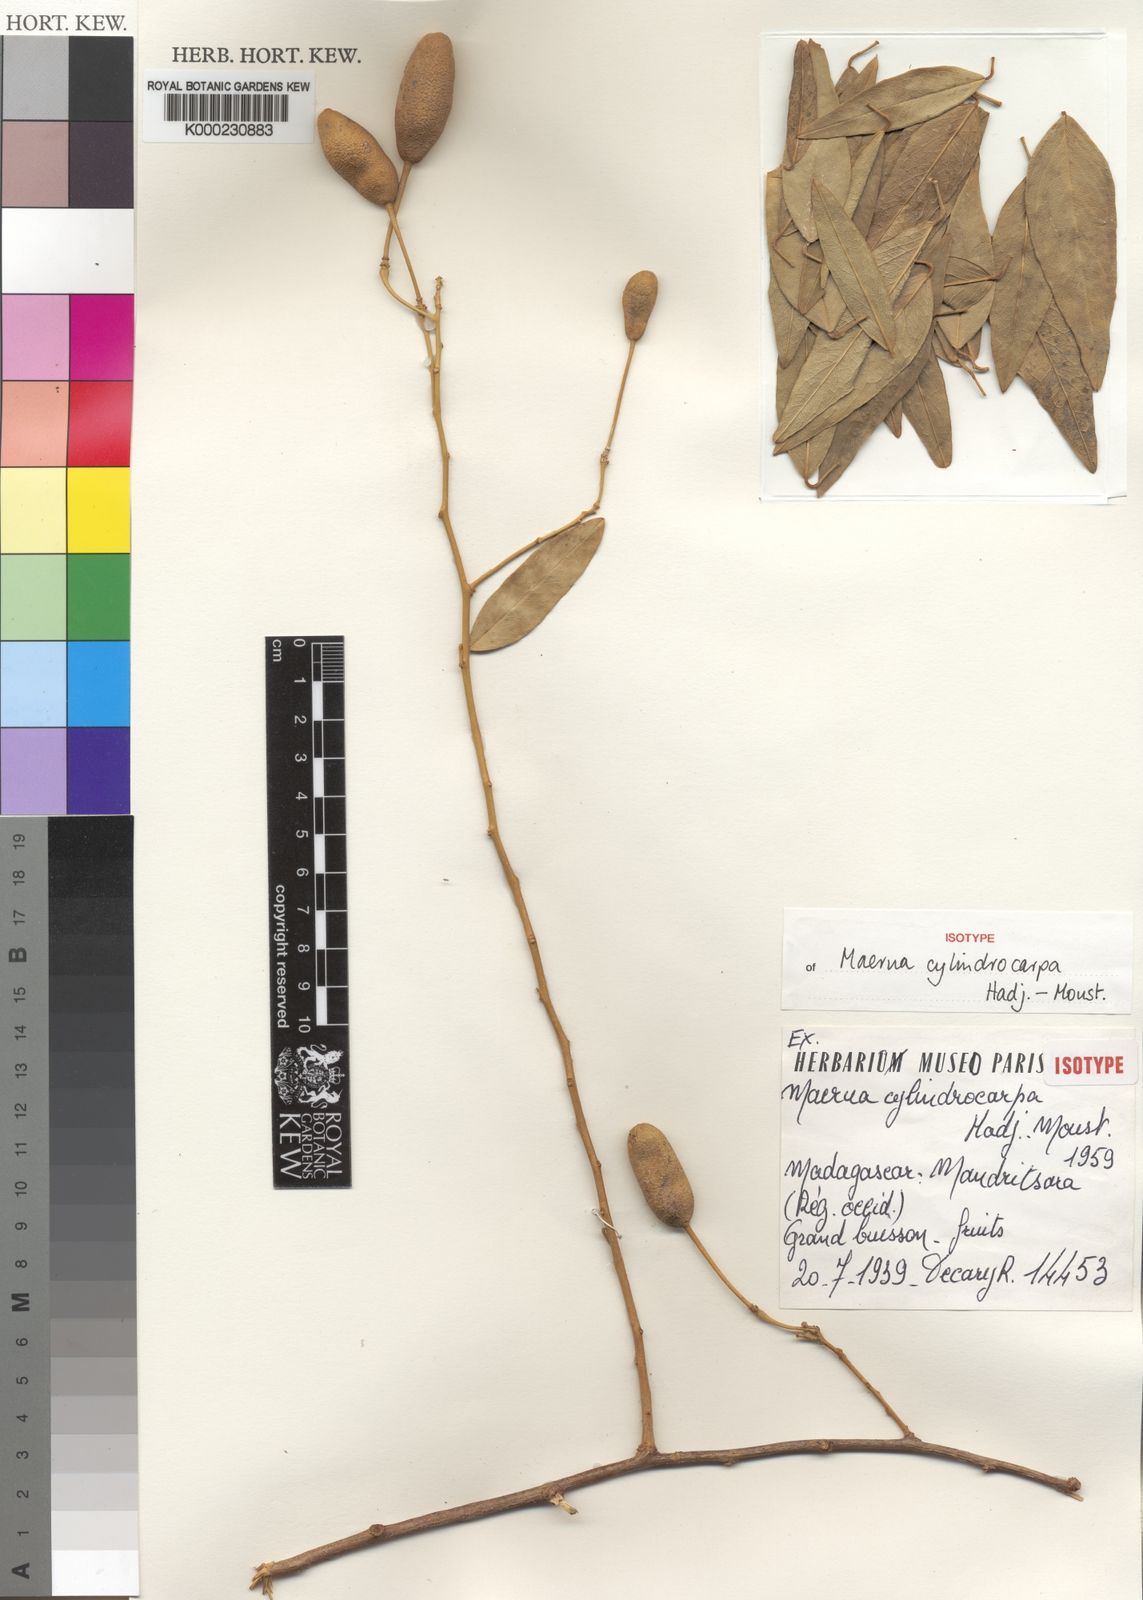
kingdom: Plantae
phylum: Tracheophyta
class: Magnoliopsida
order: Brassicales
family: Capparaceae
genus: Maerua
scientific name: Maerua cylindrocarpa
